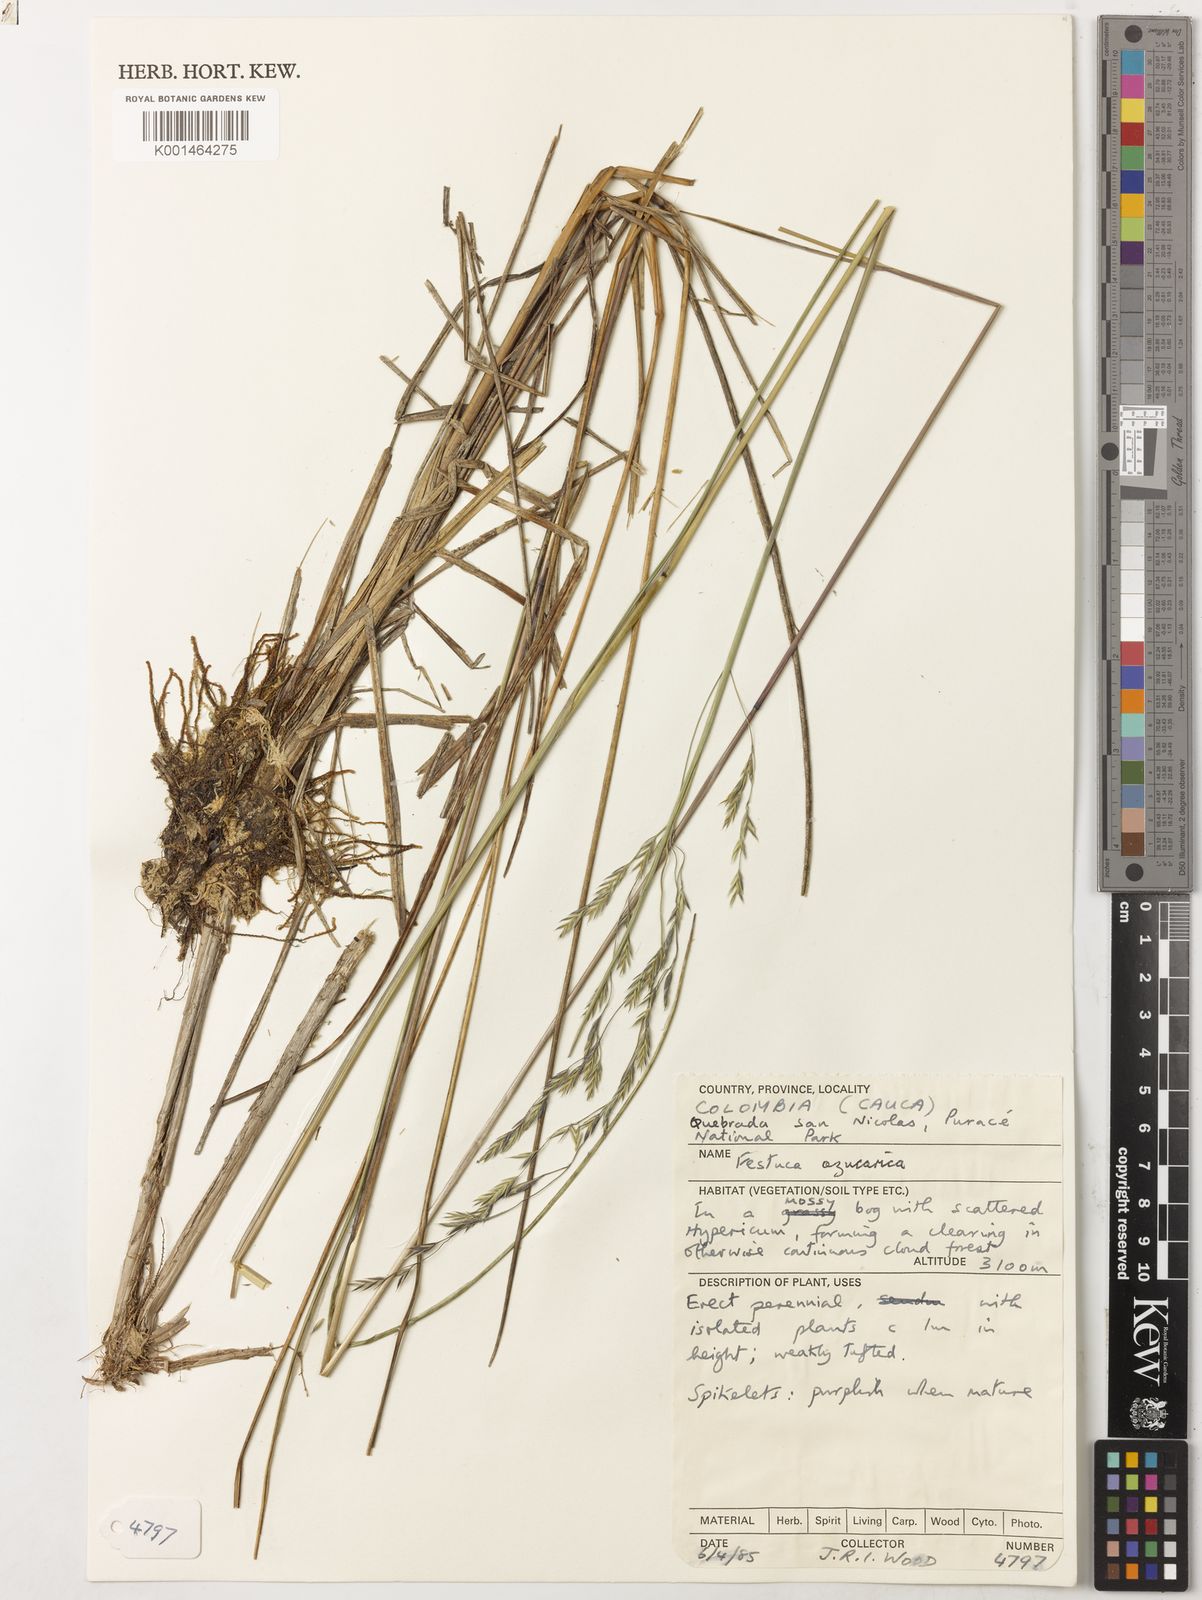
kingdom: Plantae
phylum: Tracheophyta
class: Liliopsida
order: Poales
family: Poaceae
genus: Festuca
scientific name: Festuca azucarica
